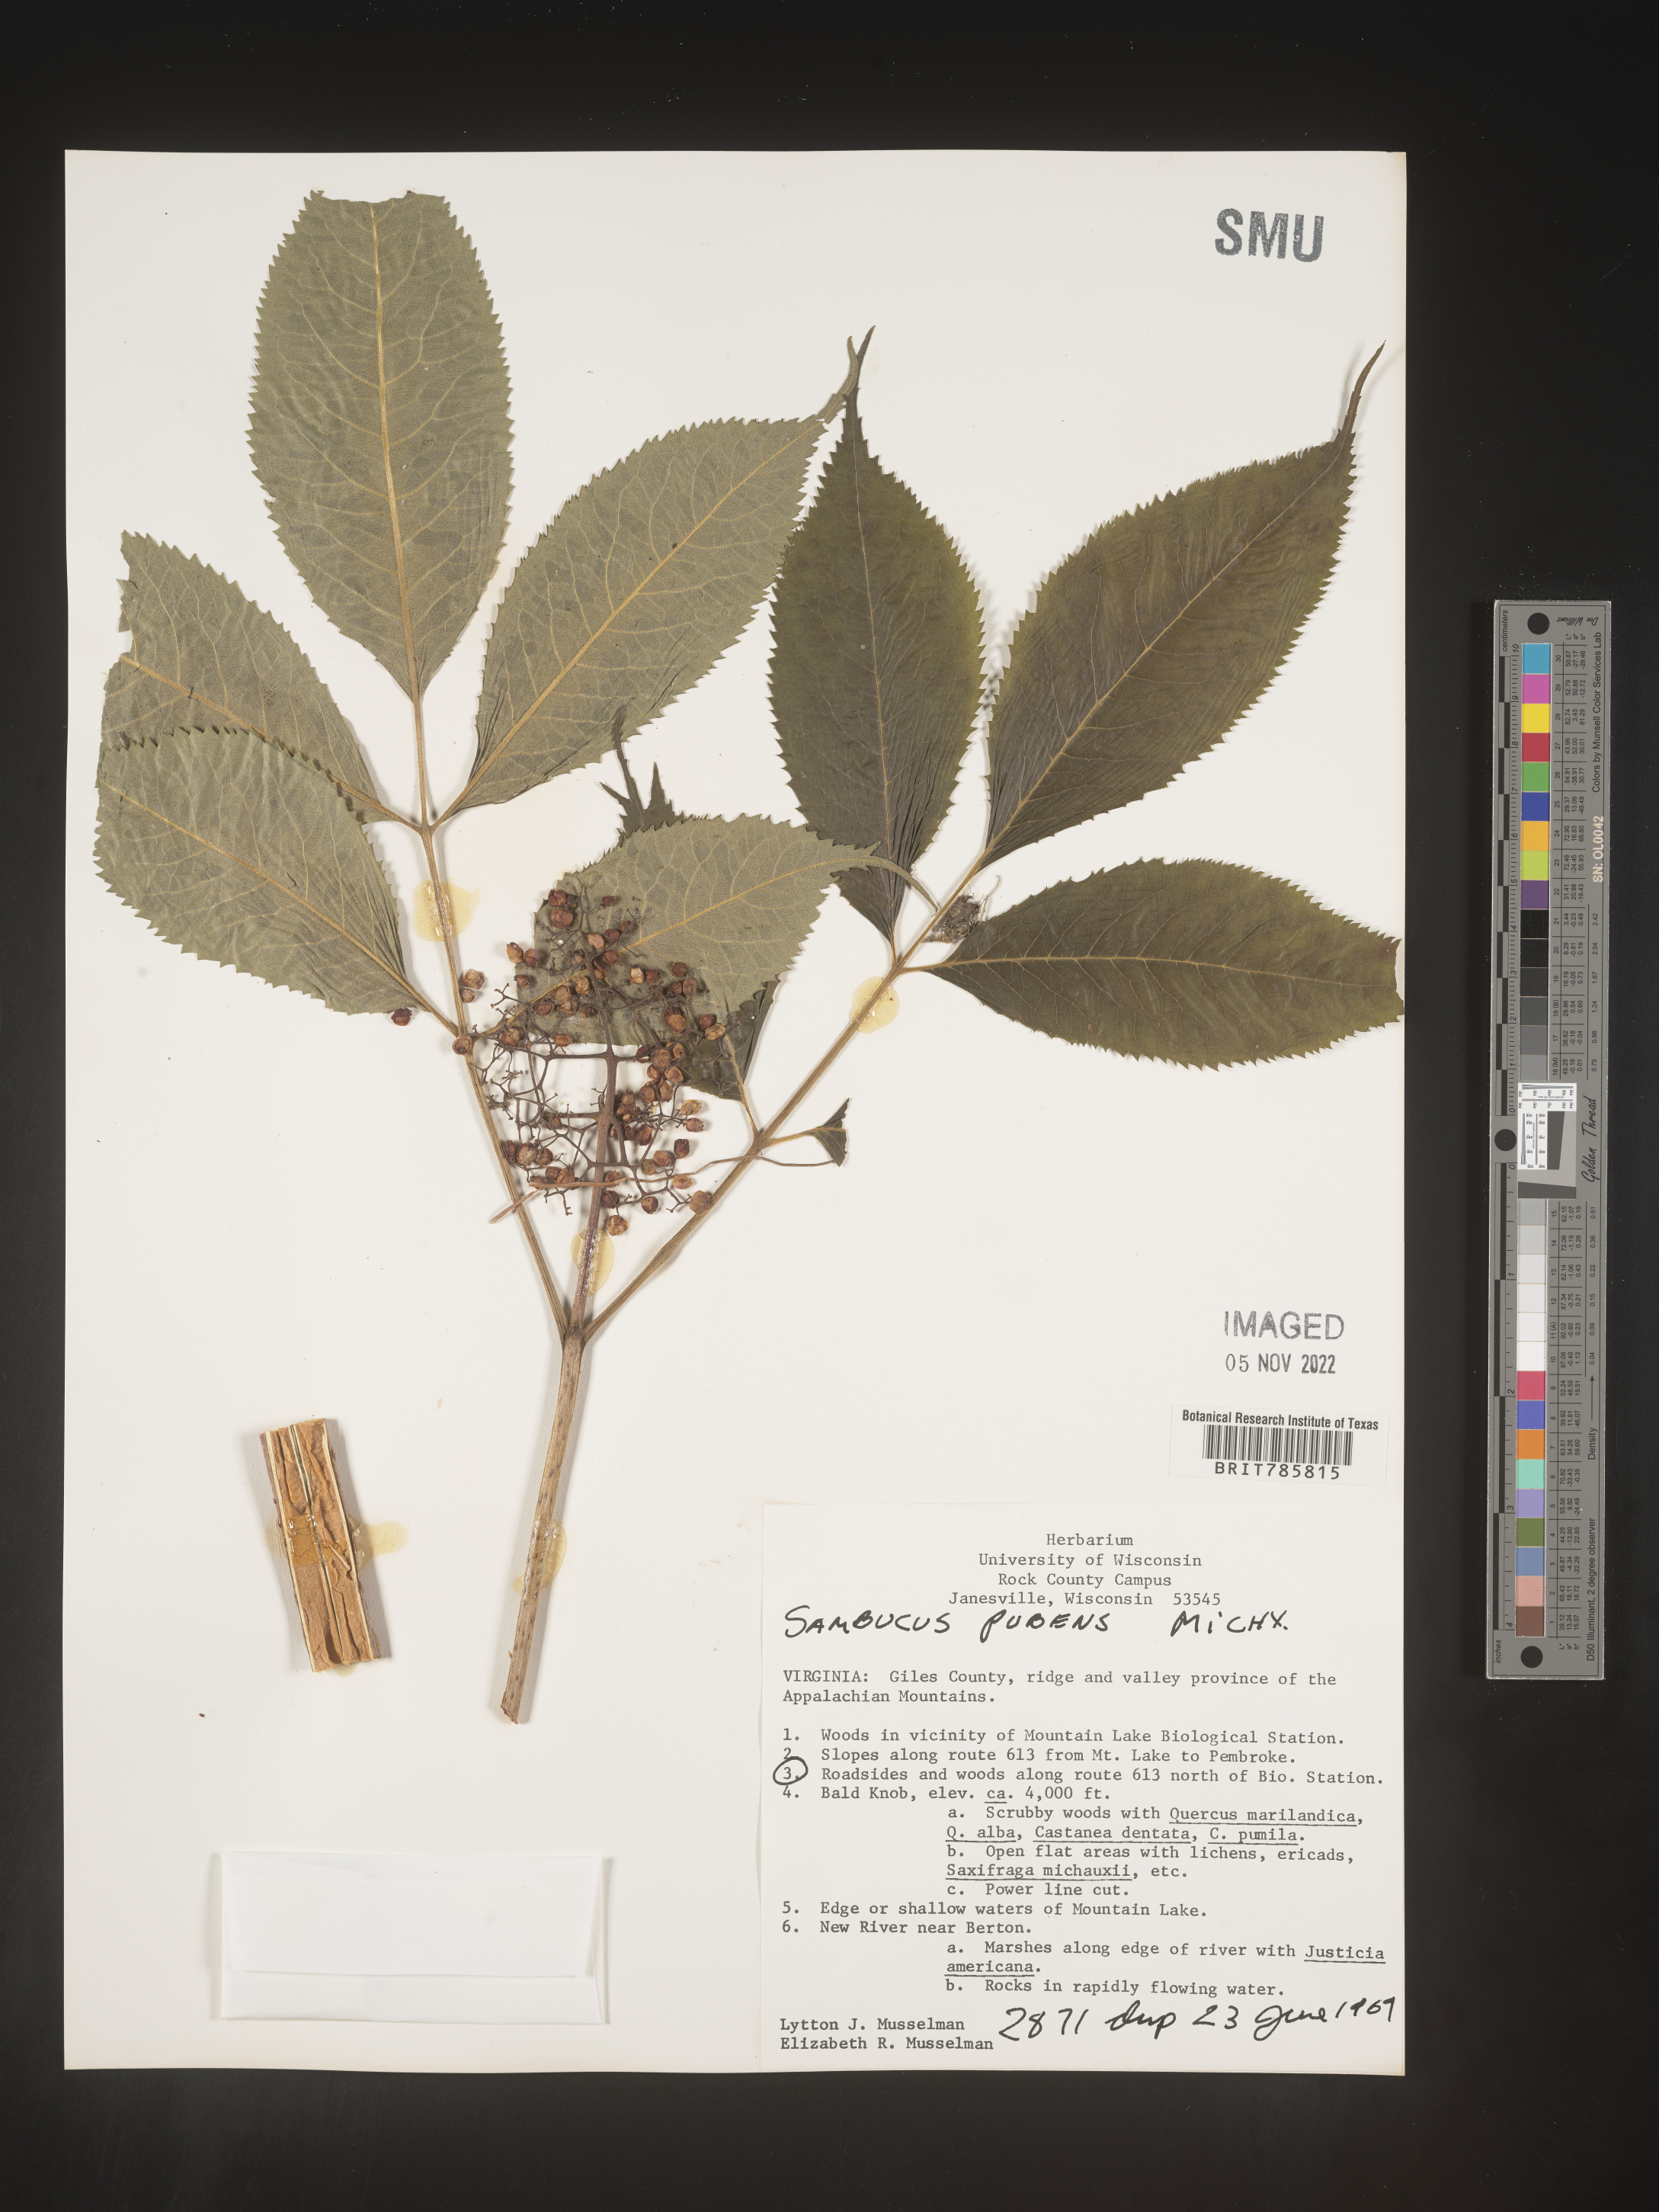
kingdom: Plantae
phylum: Tracheophyta
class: Magnoliopsida
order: Dipsacales
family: Viburnaceae
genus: Sambucus
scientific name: Sambucus
